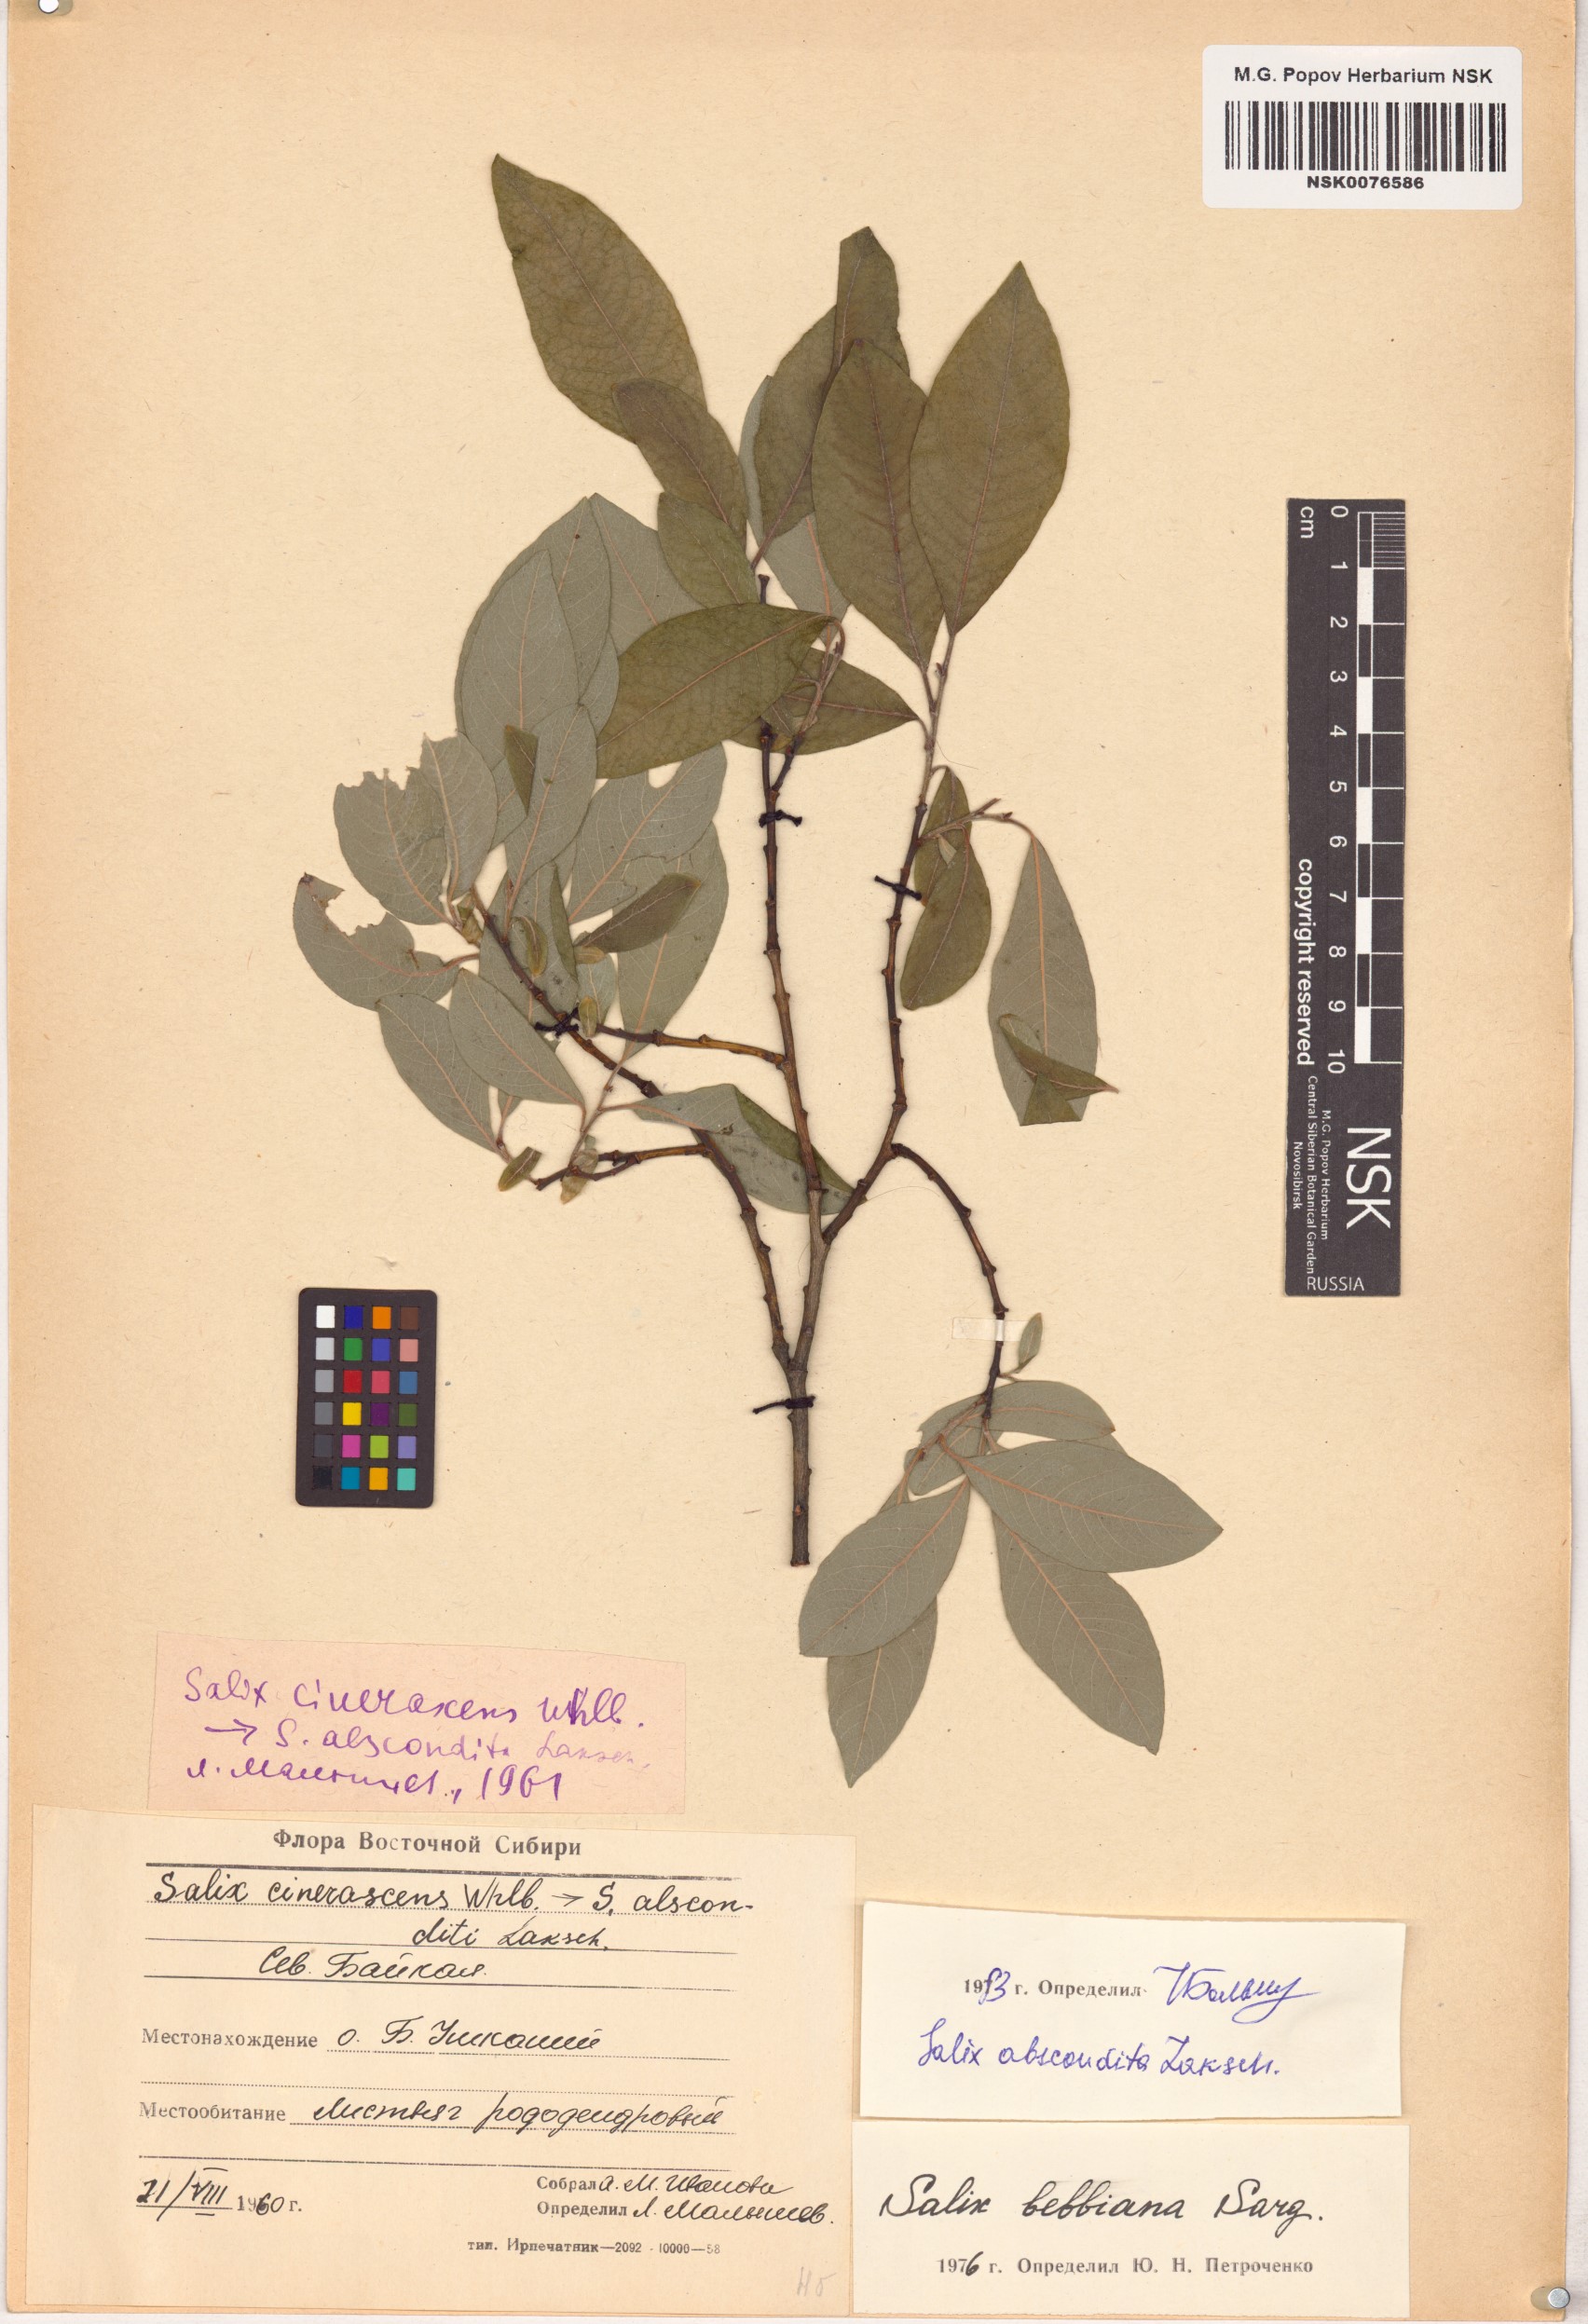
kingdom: Plantae
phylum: Tracheophyta
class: Magnoliopsida
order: Malpighiales
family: Salicaceae
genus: Salix
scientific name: Salix abscondita
